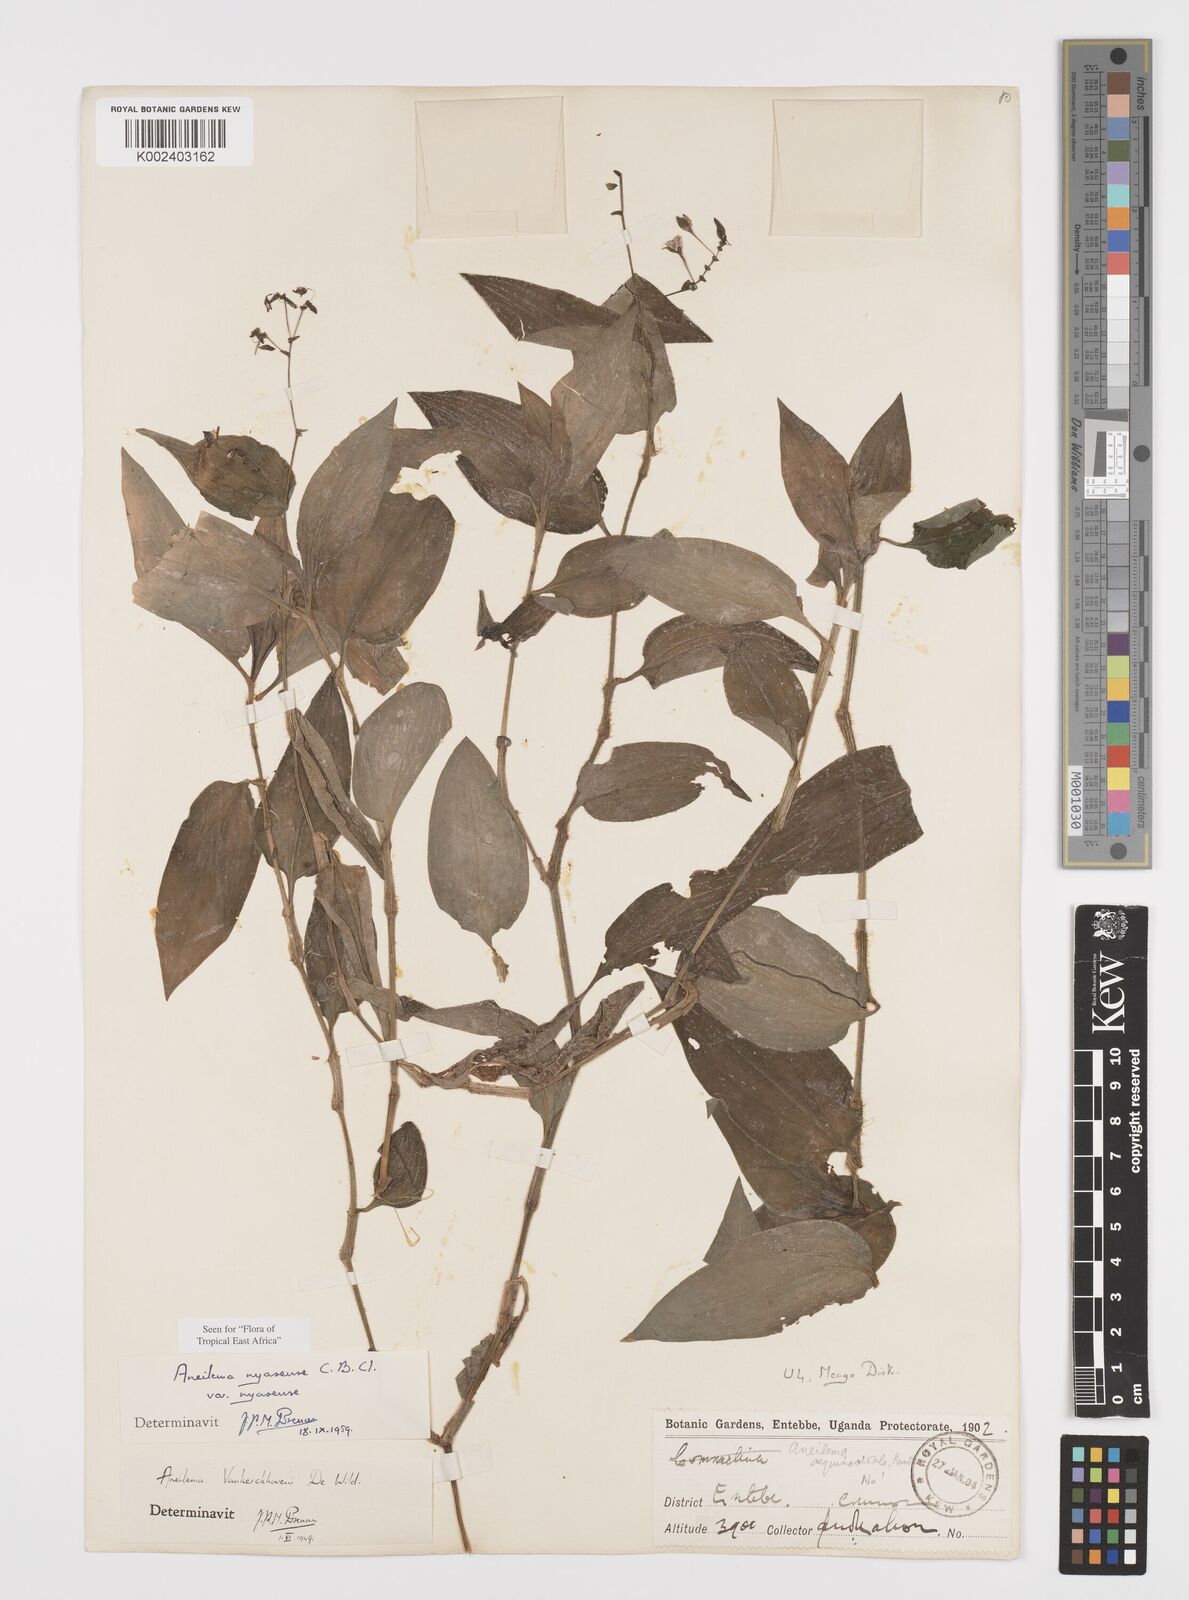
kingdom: Plantae
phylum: Tracheophyta
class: Liliopsida
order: Commelinales
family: Commelinaceae
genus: Aneilema
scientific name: Aneilema nyasense
